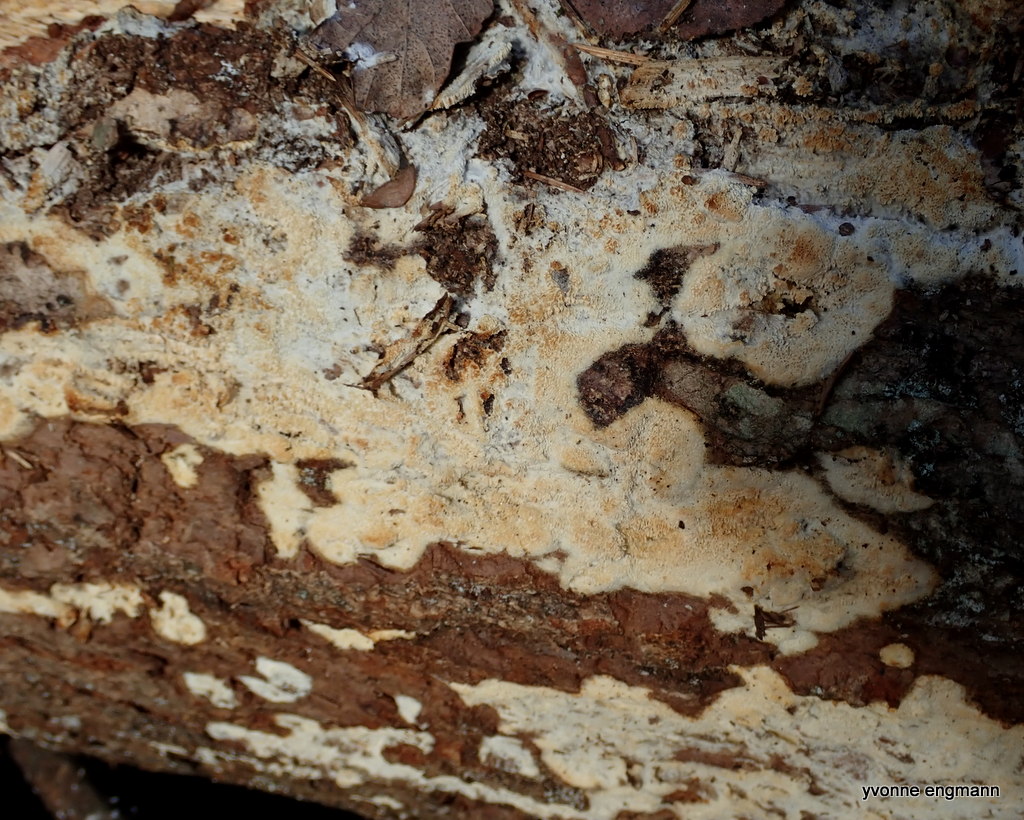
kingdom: Fungi
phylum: Basidiomycota
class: Agaricomycetes
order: Corticiales
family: Corticiaceae
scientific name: Corticiaceae
